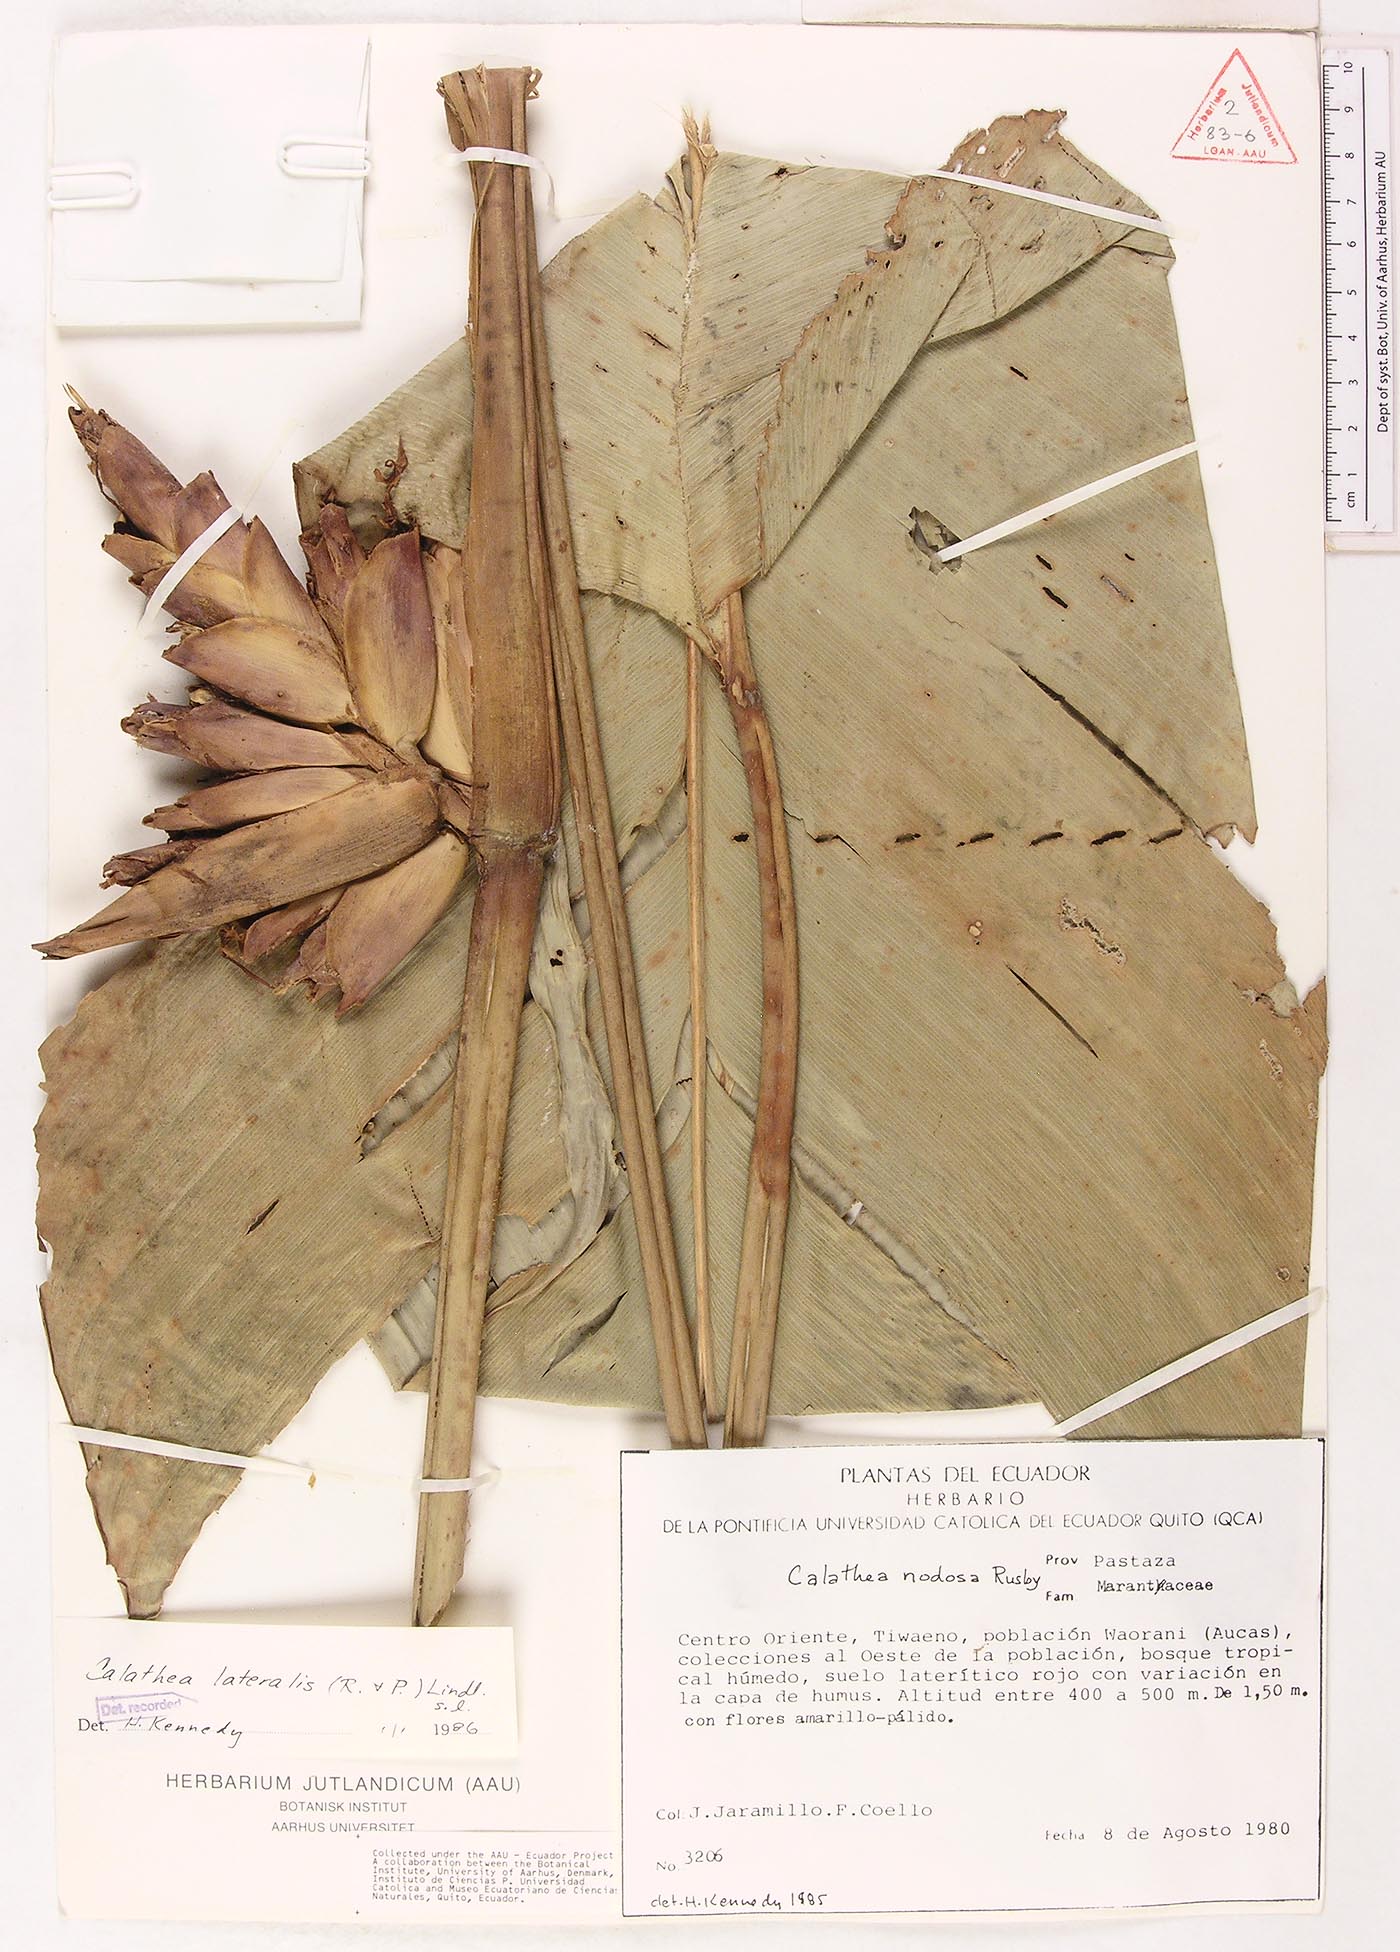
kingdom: Plantae
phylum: Tracheophyta
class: Liliopsida
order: Zingiberales
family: Marantaceae
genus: Calathea
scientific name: Calathea lateralis
